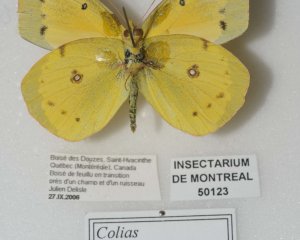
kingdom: Animalia
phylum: Arthropoda
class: Insecta
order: Lepidoptera
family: Pieridae
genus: Colias
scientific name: Colias eurytheme
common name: Orange Sulphur
